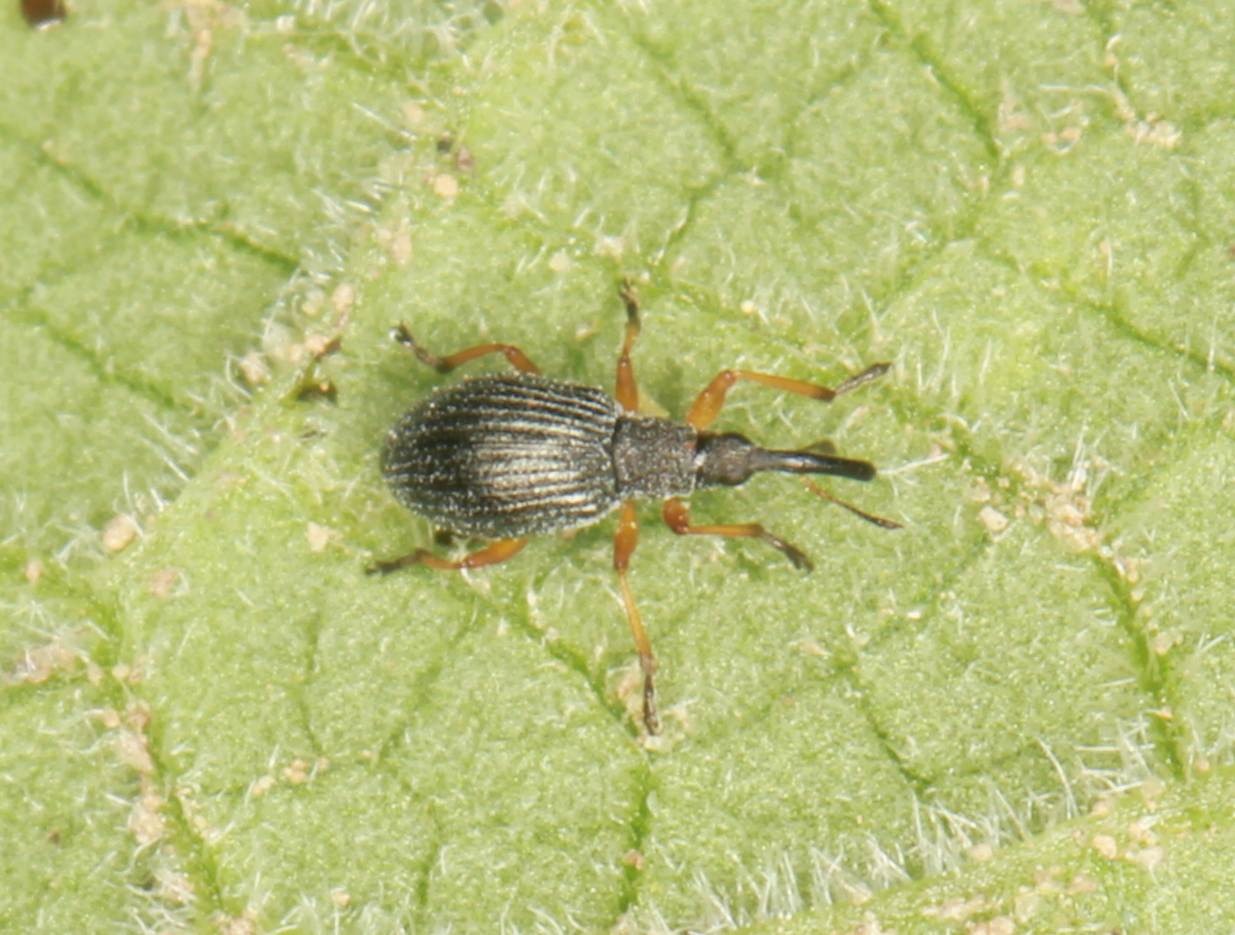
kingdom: Animalia
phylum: Arthropoda
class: Insecta
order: Coleoptera
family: Apionidae
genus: Protapion
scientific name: Protapion fulvipes
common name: Hvidkløversnudebille
